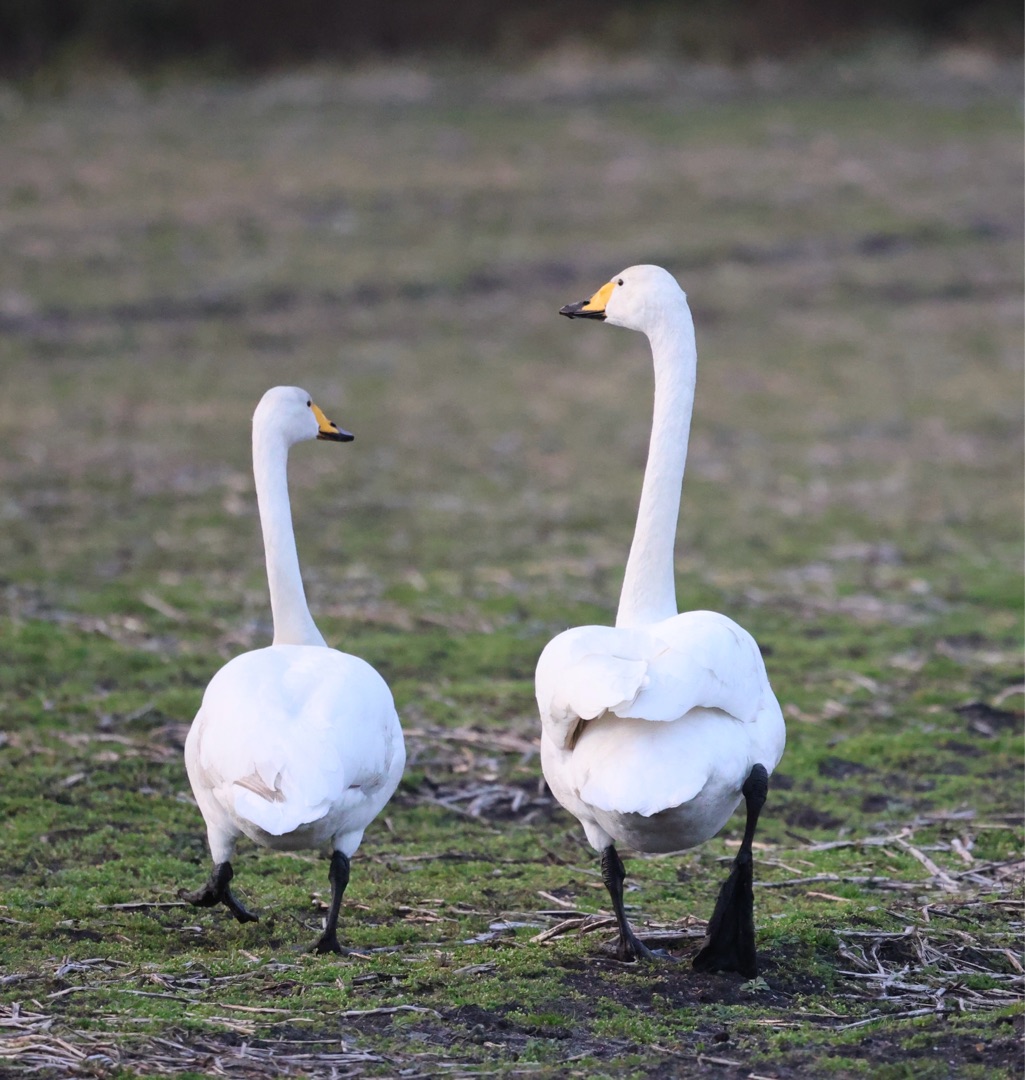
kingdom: Animalia
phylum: Chordata
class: Aves
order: Anseriformes
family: Anatidae
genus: Cygnus
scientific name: Cygnus cygnus
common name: Sangsvane
